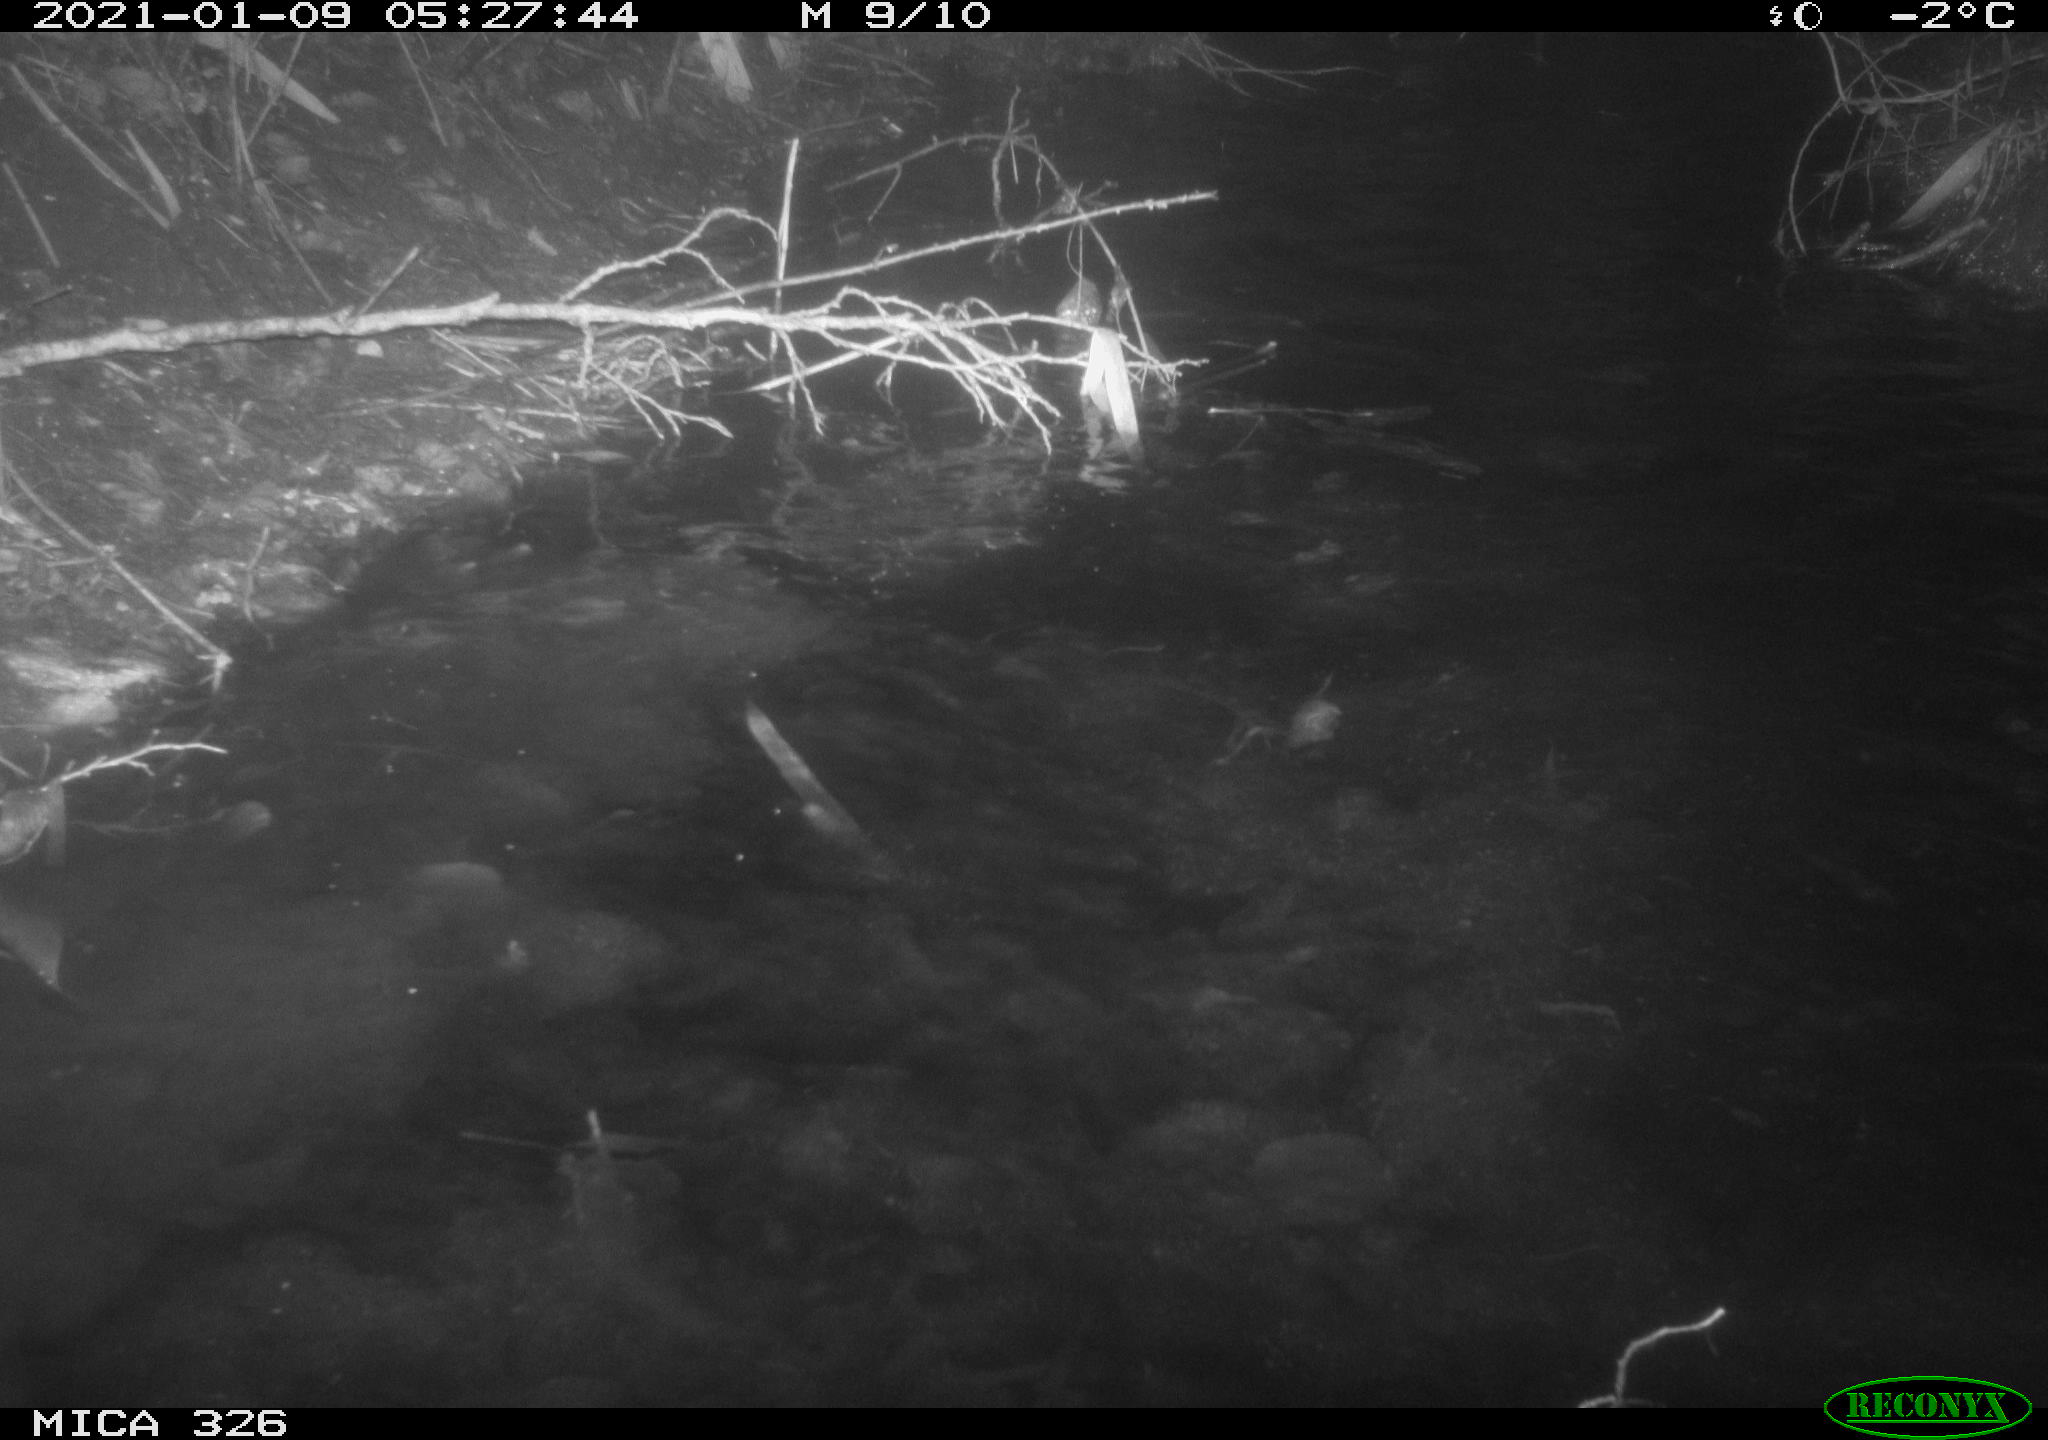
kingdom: Animalia
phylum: Chordata
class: Mammalia
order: Carnivora
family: Mustelidae
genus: Lutra
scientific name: Lutra lutra
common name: European otter
